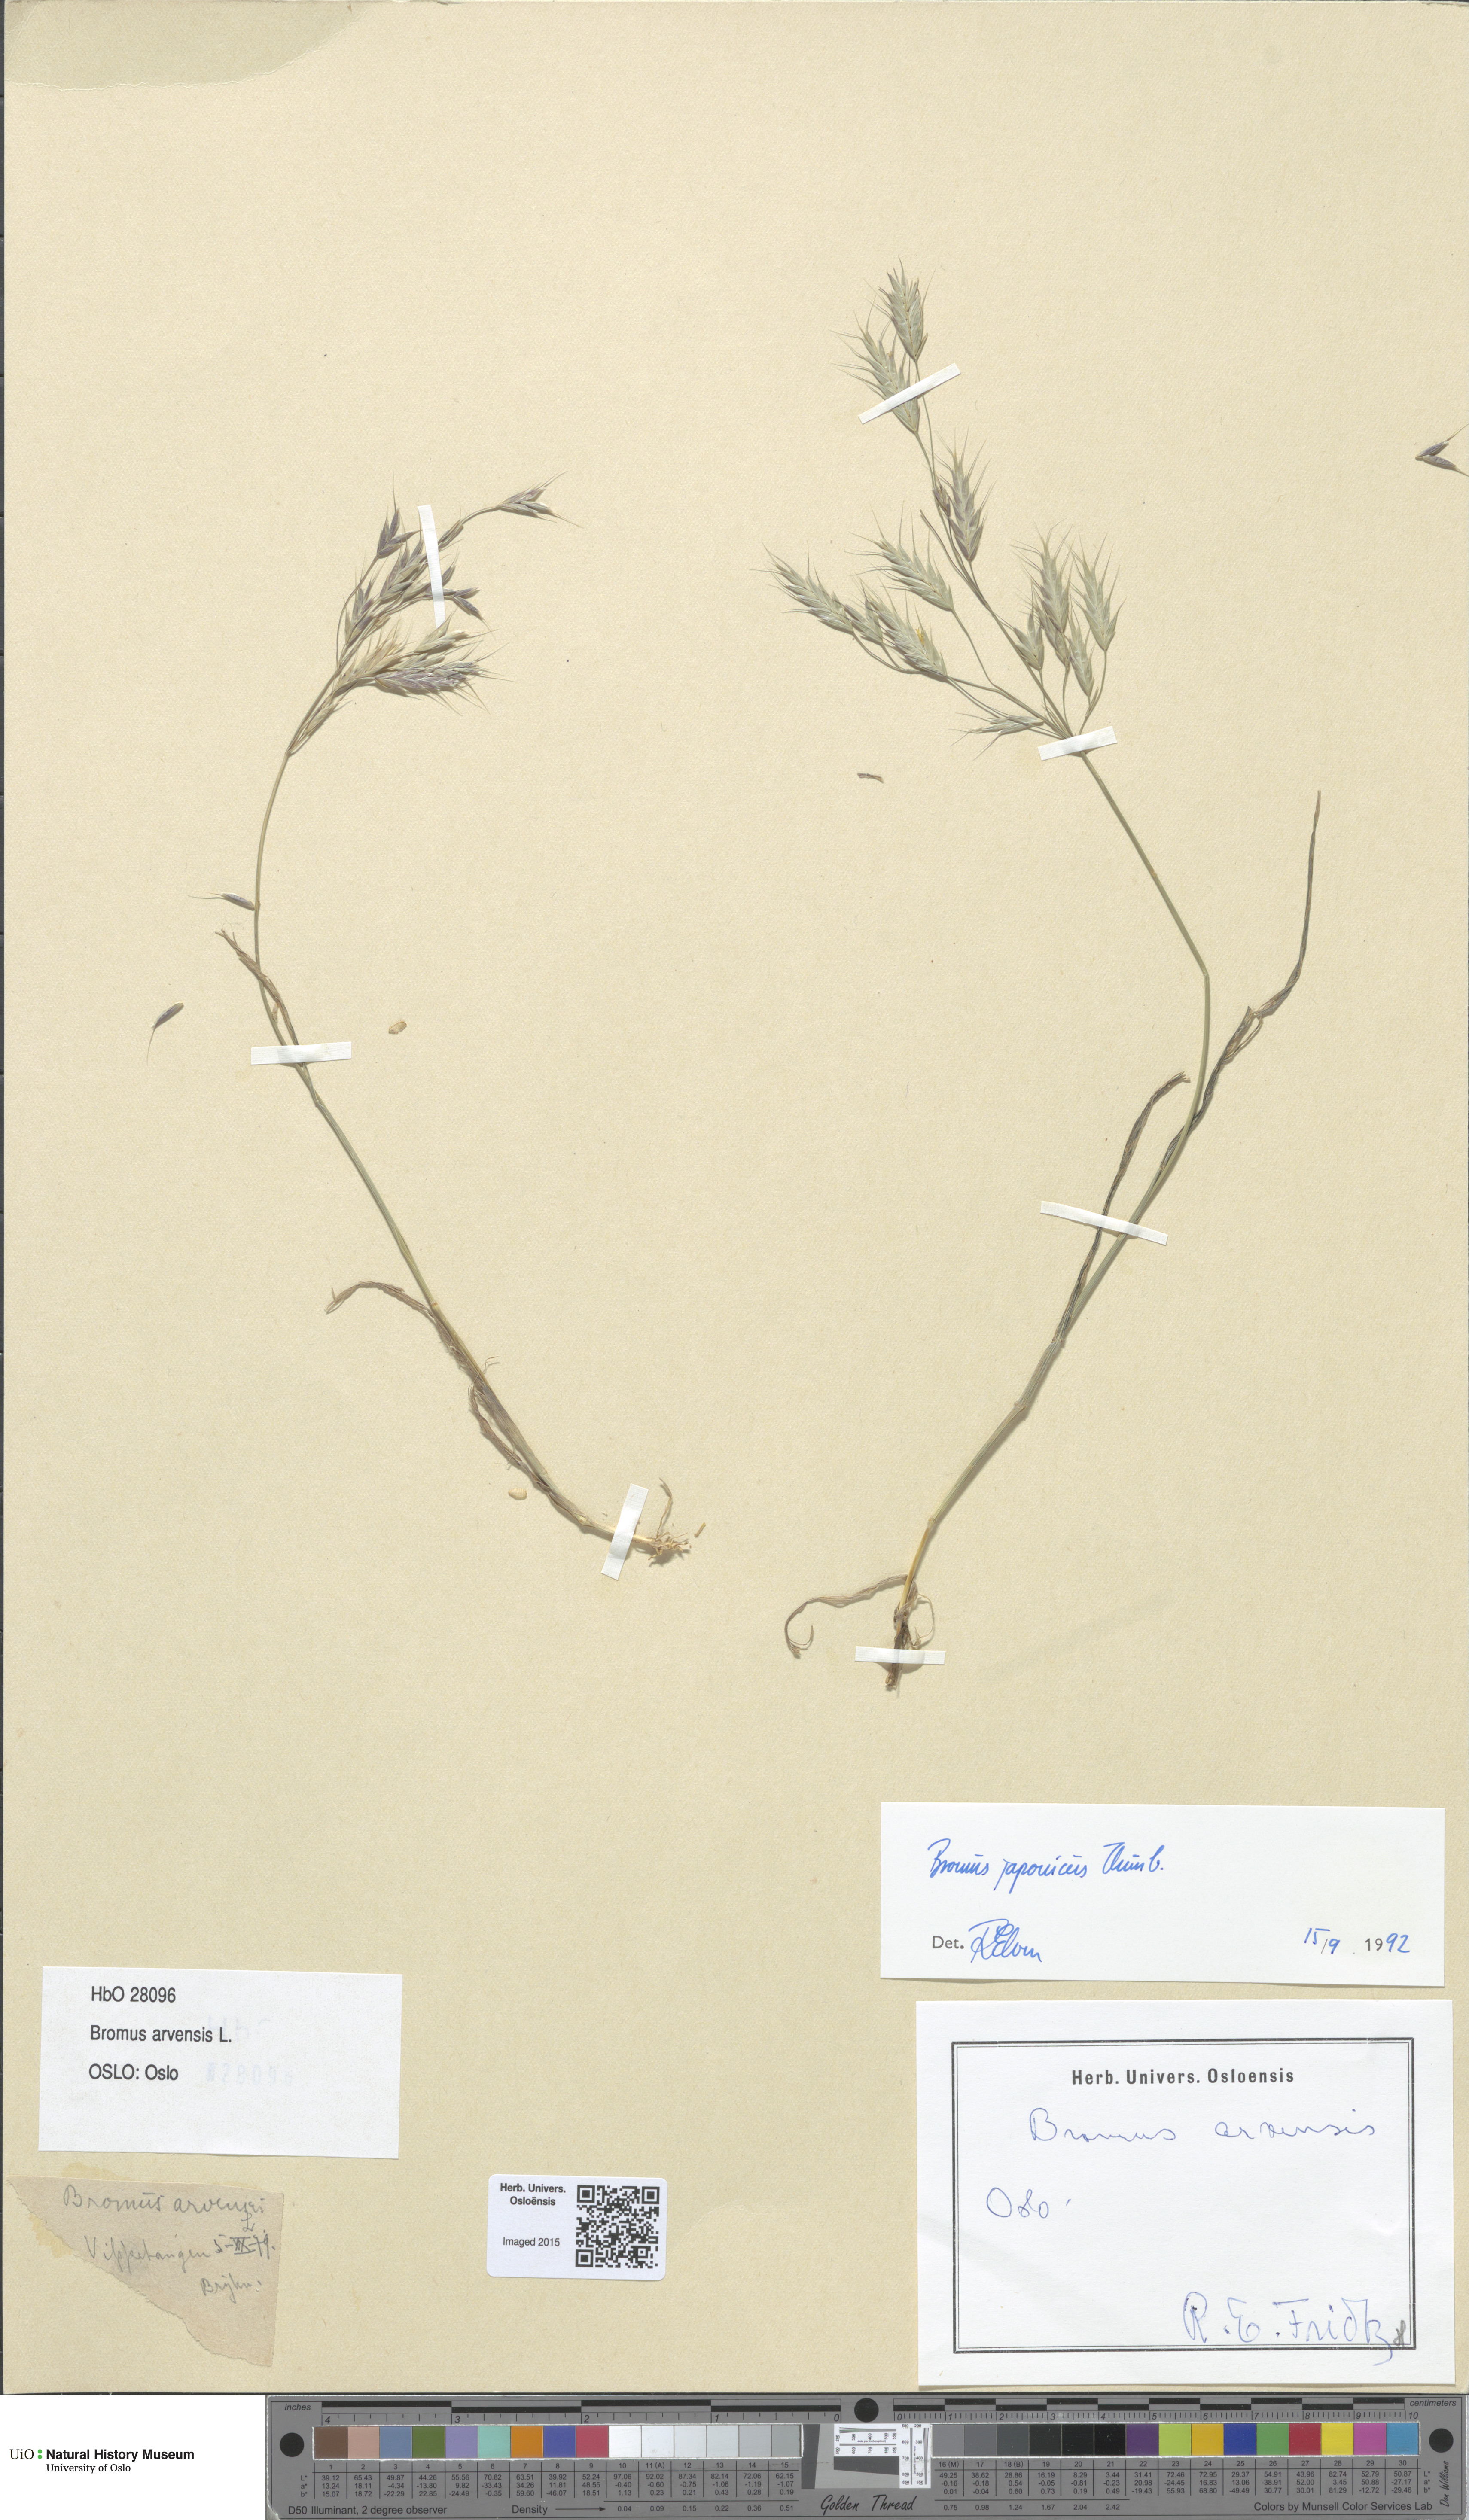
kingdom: Plantae
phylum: Tracheophyta
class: Liliopsida
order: Poales
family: Poaceae
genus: Bromus
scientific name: Bromus arvensis
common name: Field brome
